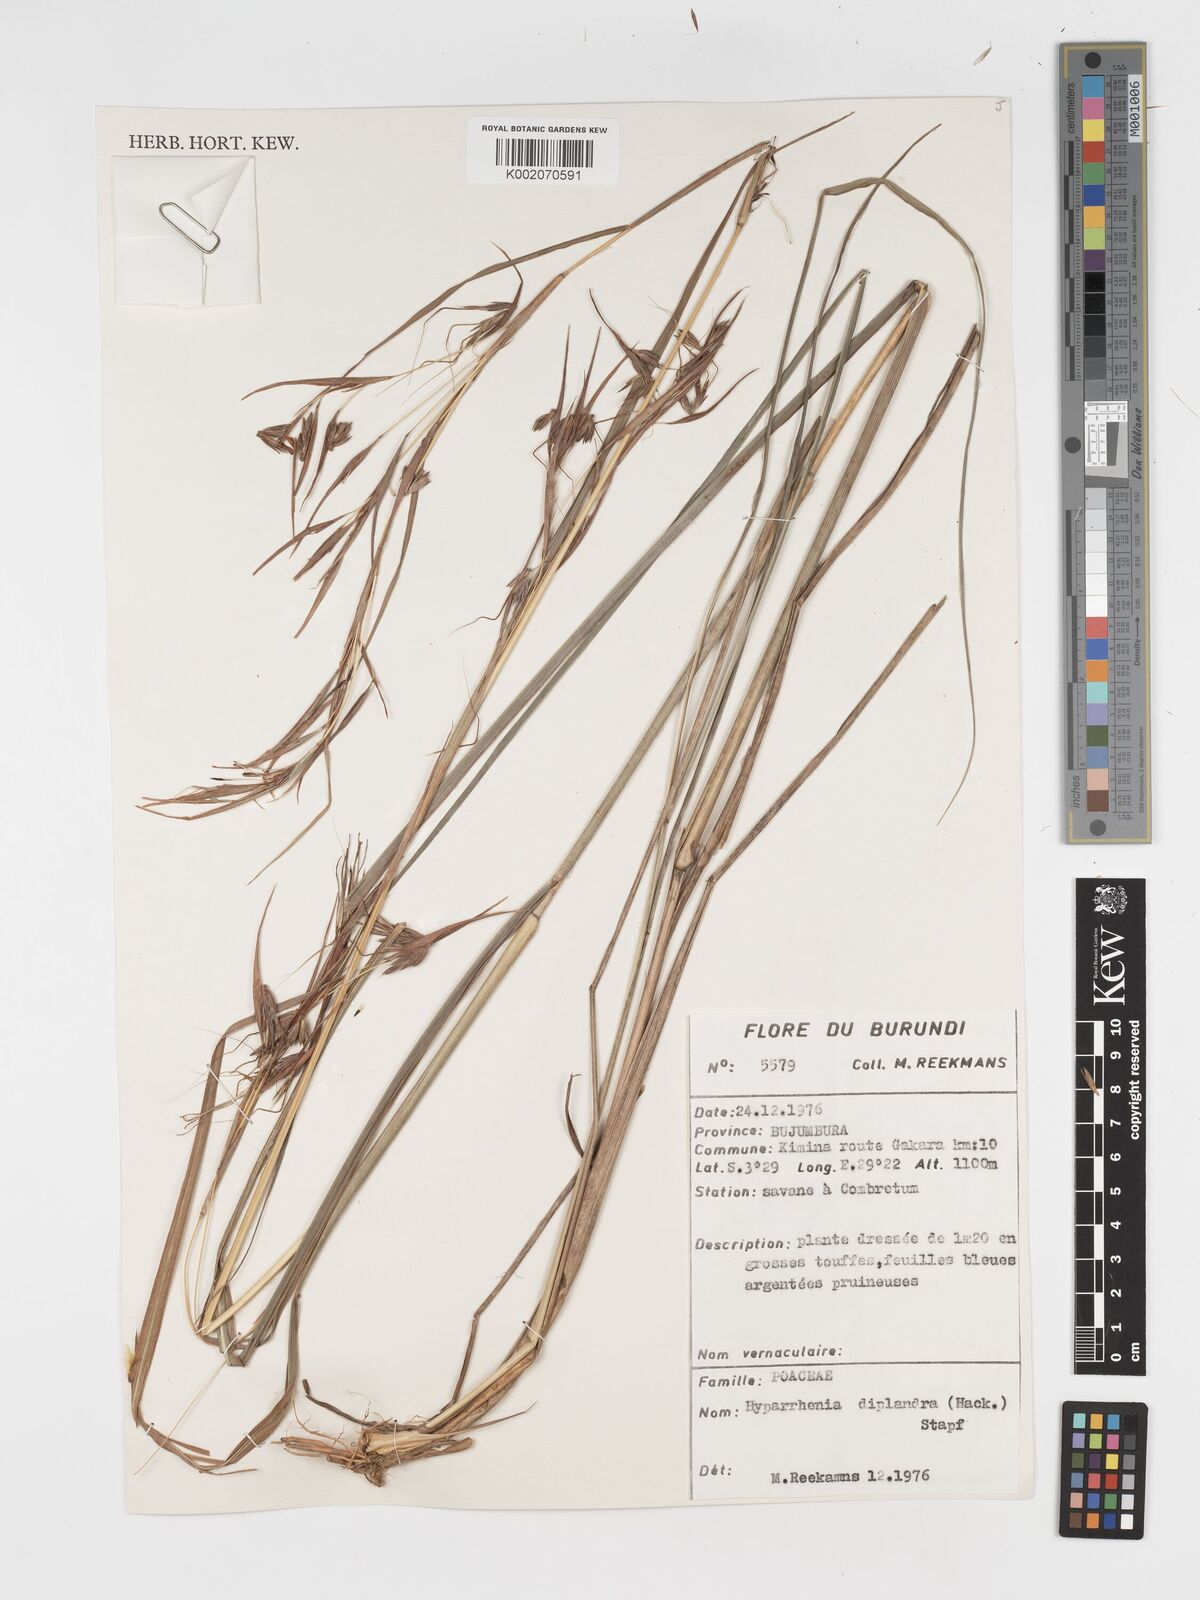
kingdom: Plantae
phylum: Tracheophyta
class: Liliopsida
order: Poales
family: Poaceae
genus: Hyparrhenia
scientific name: Hyparrhenia diplandra
